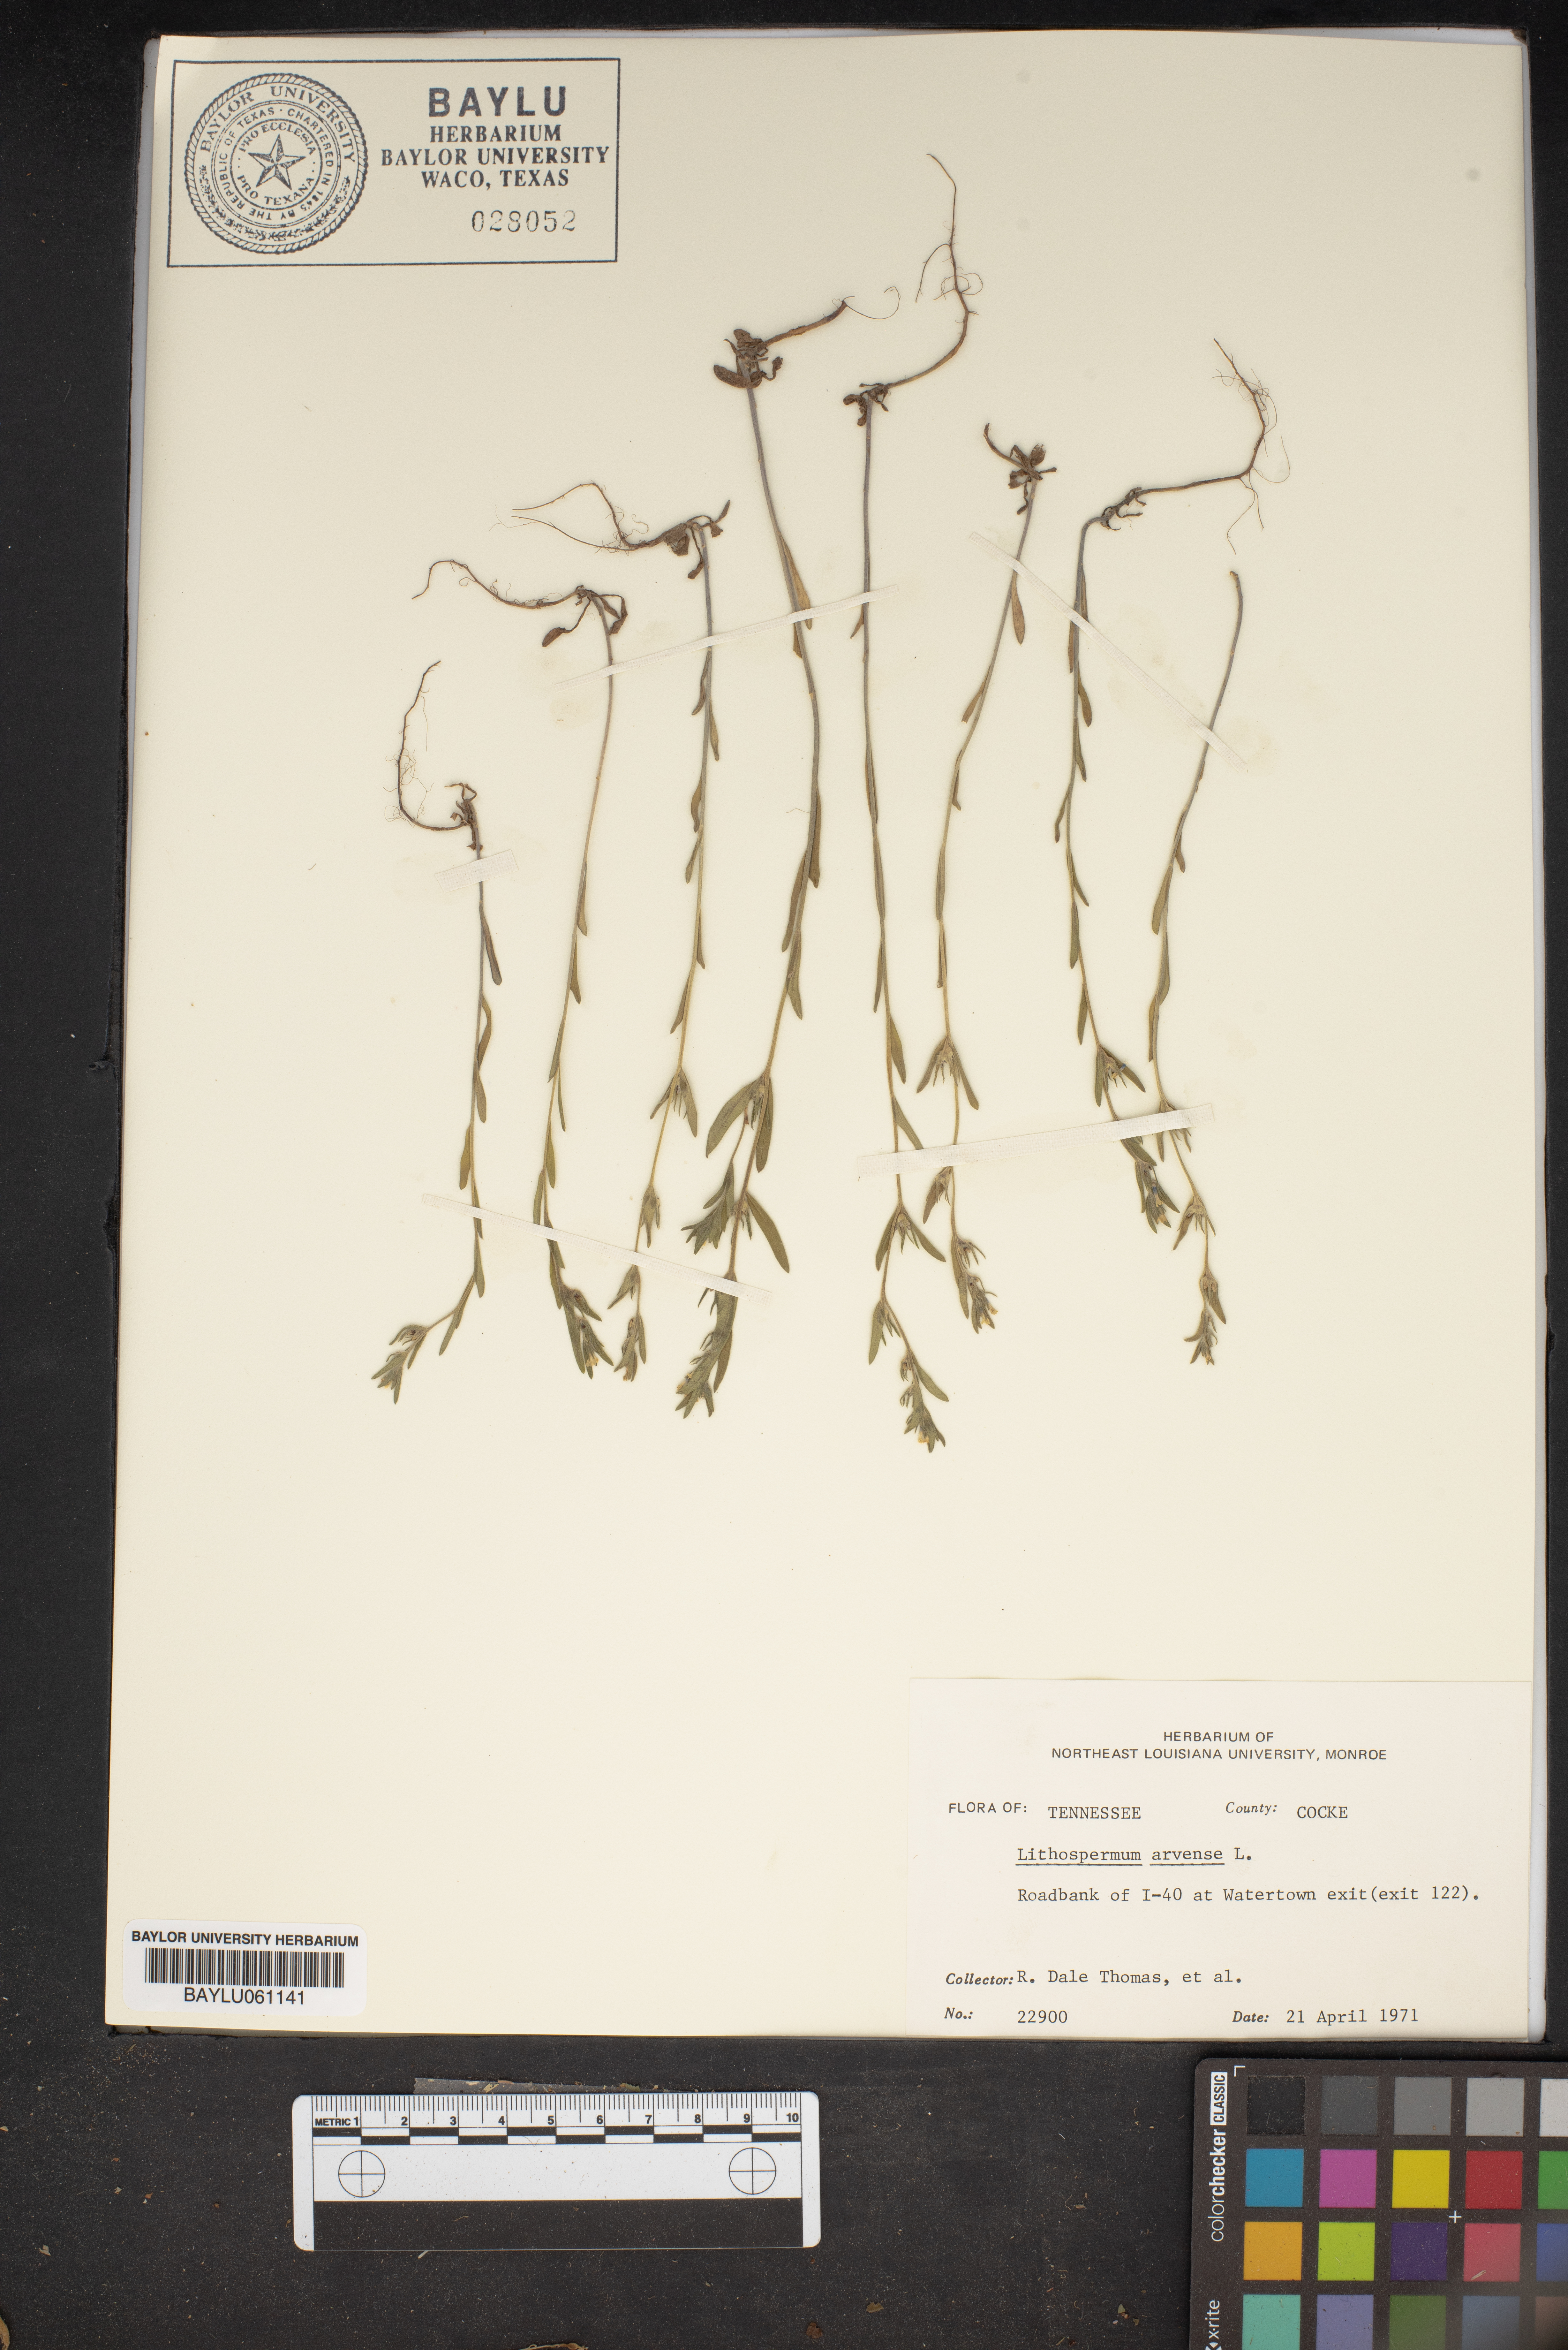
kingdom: Plantae
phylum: Tracheophyta
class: Magnoliopsida
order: Boraginales
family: Boraginaceae
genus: Lithospermum
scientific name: Lithospermum erythrorhizon
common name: Purple gromwell
